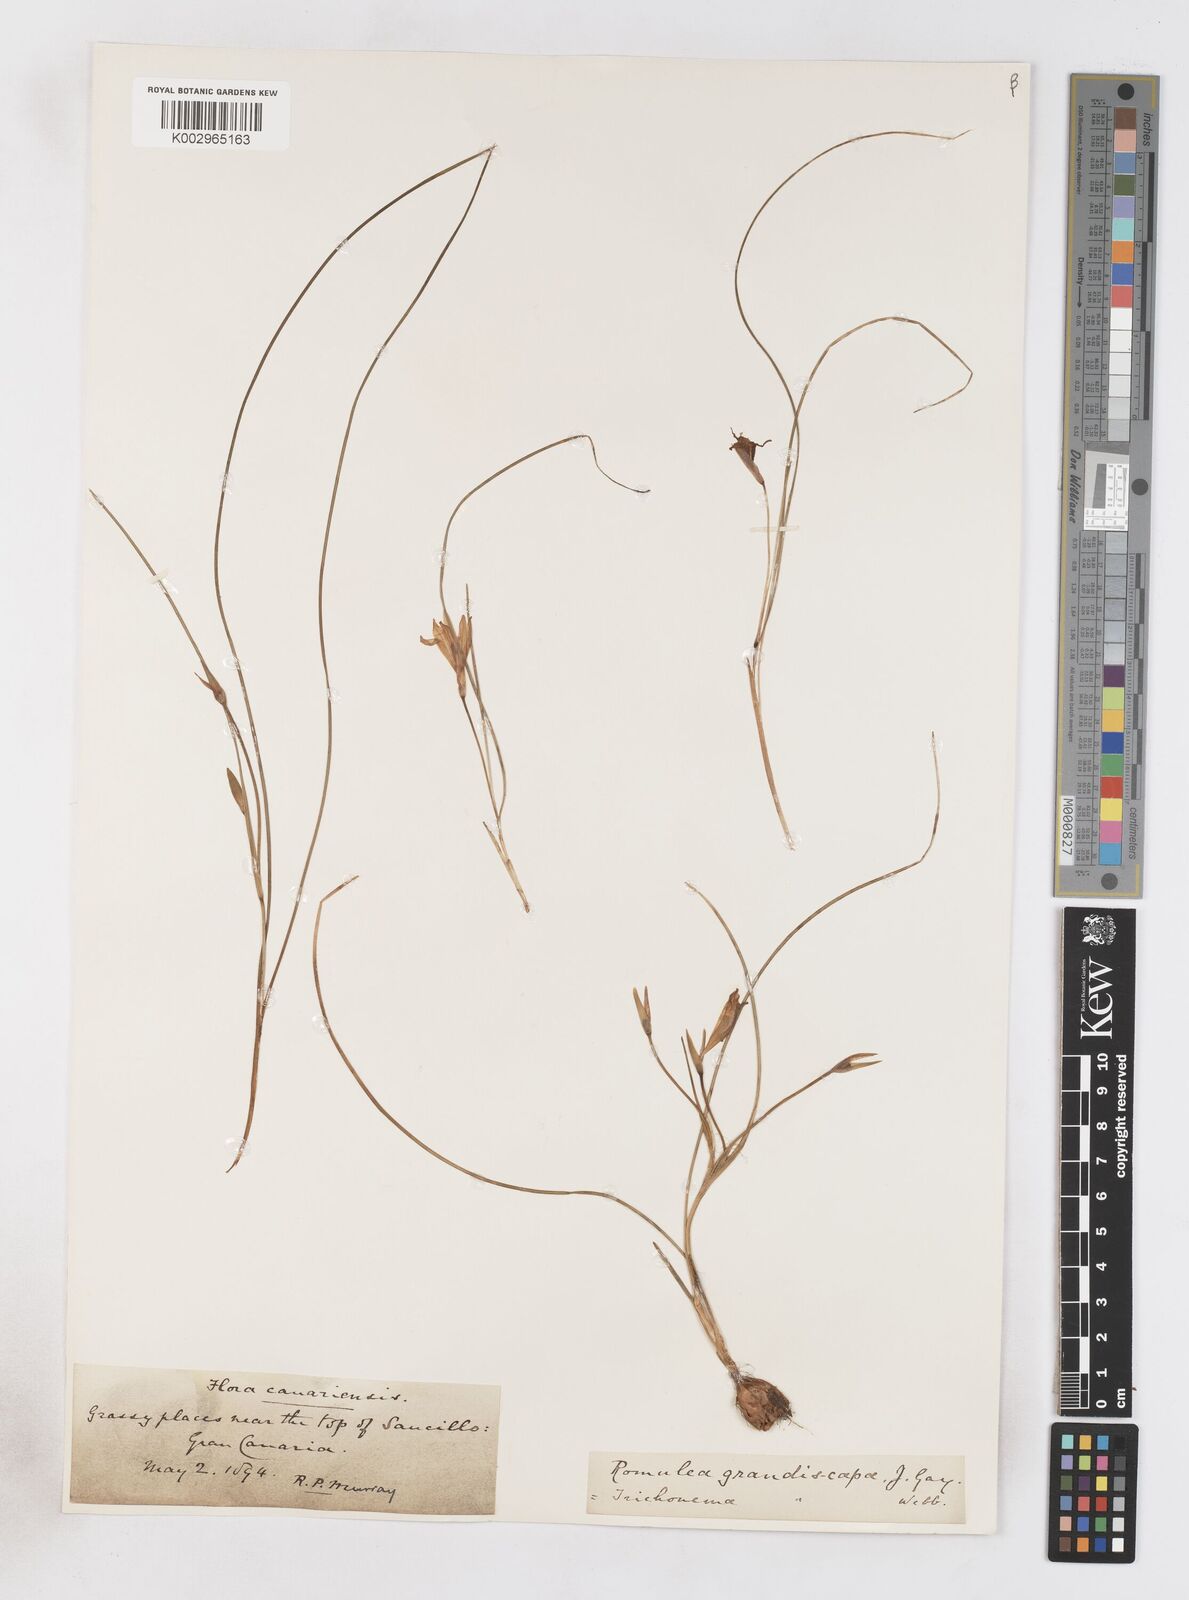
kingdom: Plantae
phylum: Tracheophyta
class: Liliopsida
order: Asparagales
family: Iridaceae
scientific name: Iridaceae
